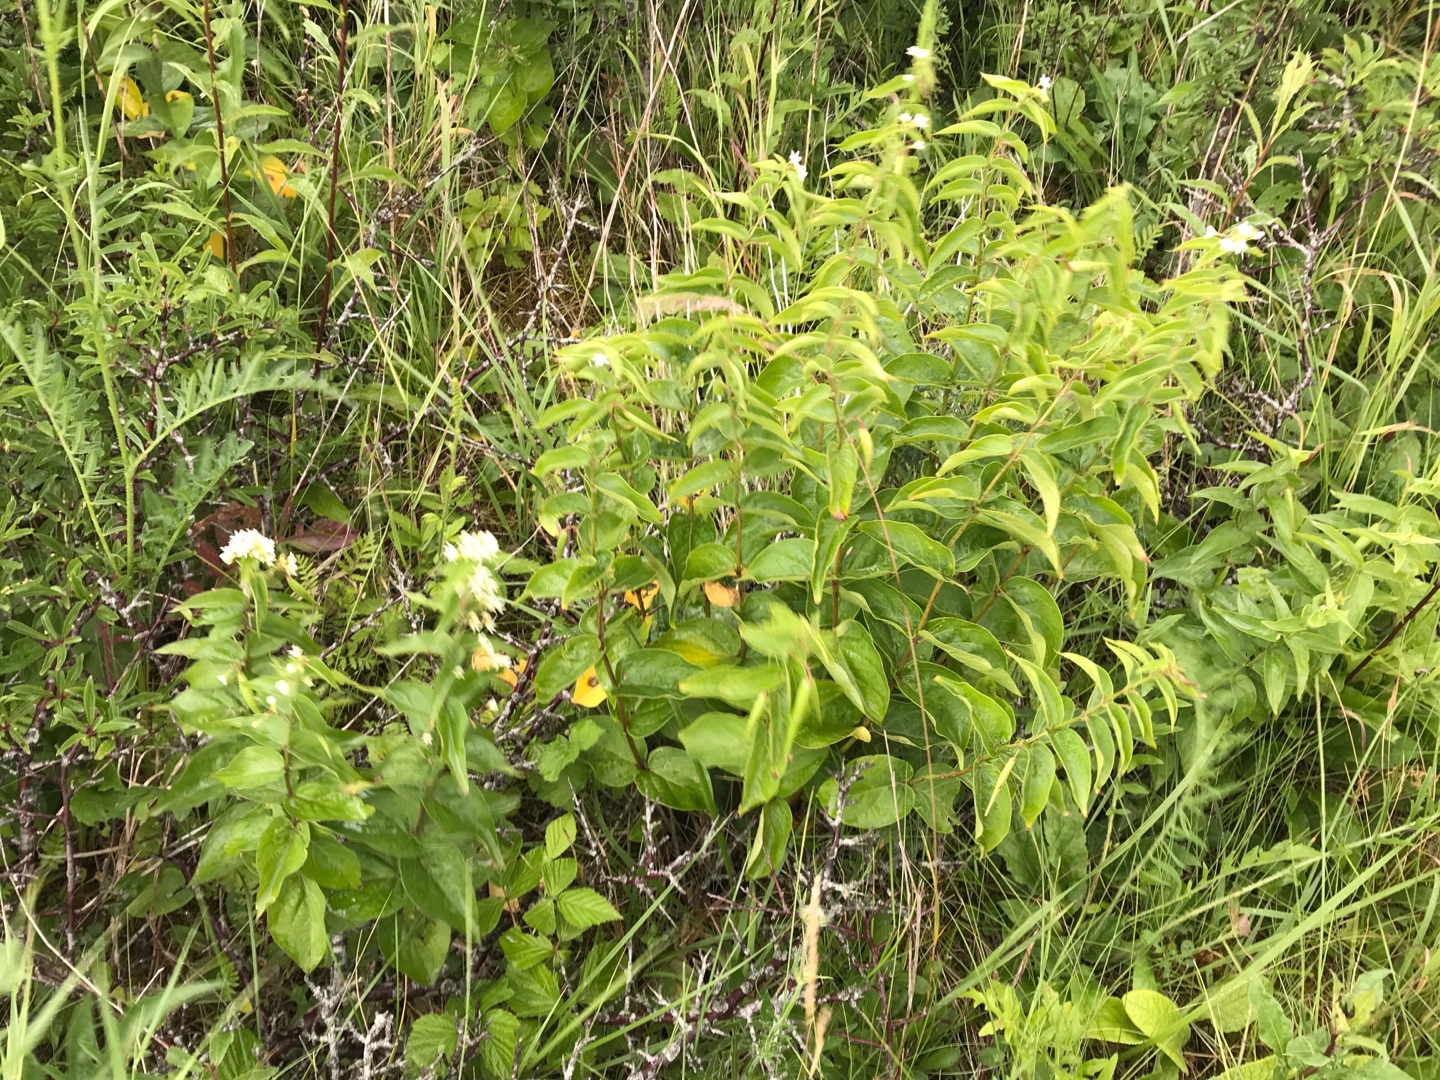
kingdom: Plantae
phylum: Tracheophyta
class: Magnoliopsida
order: Gentianales
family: Apocynaceae
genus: Vincetoxicum
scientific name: Vincetoxicum hirundinaria
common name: Svalerod
